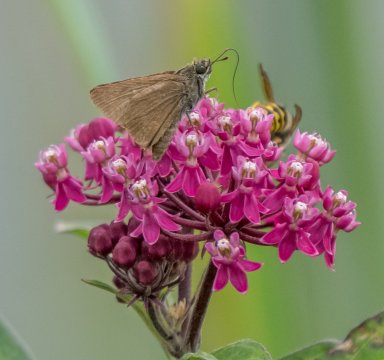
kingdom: Animalia
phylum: Arthropoda
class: Insecta
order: Lepidoptera
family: Hesperiidae
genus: Euphyes
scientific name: Euphyes vestris
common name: Dun Skipper
